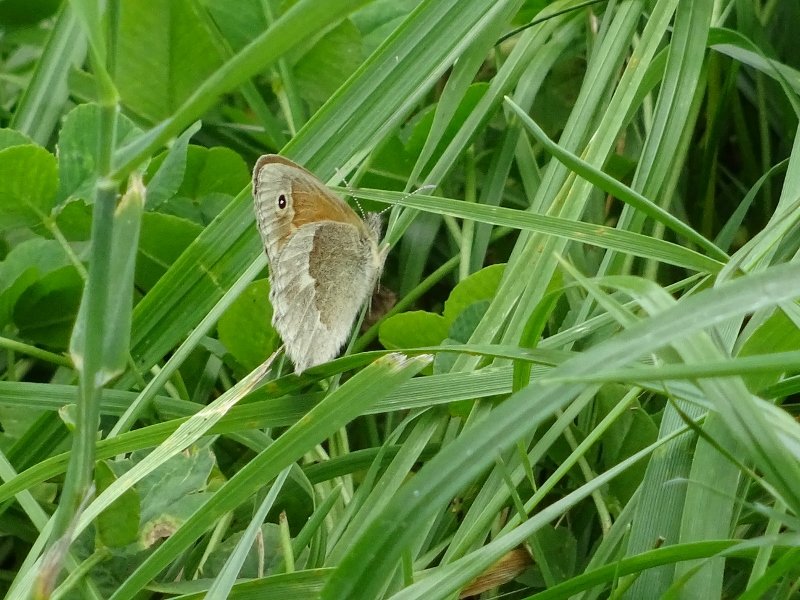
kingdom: Animalia
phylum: Arthropoda
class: Insecta
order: Lepidoptera
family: Nymphalidae
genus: Coenonympha
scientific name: Coenonympha tullia
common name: Large Heath
